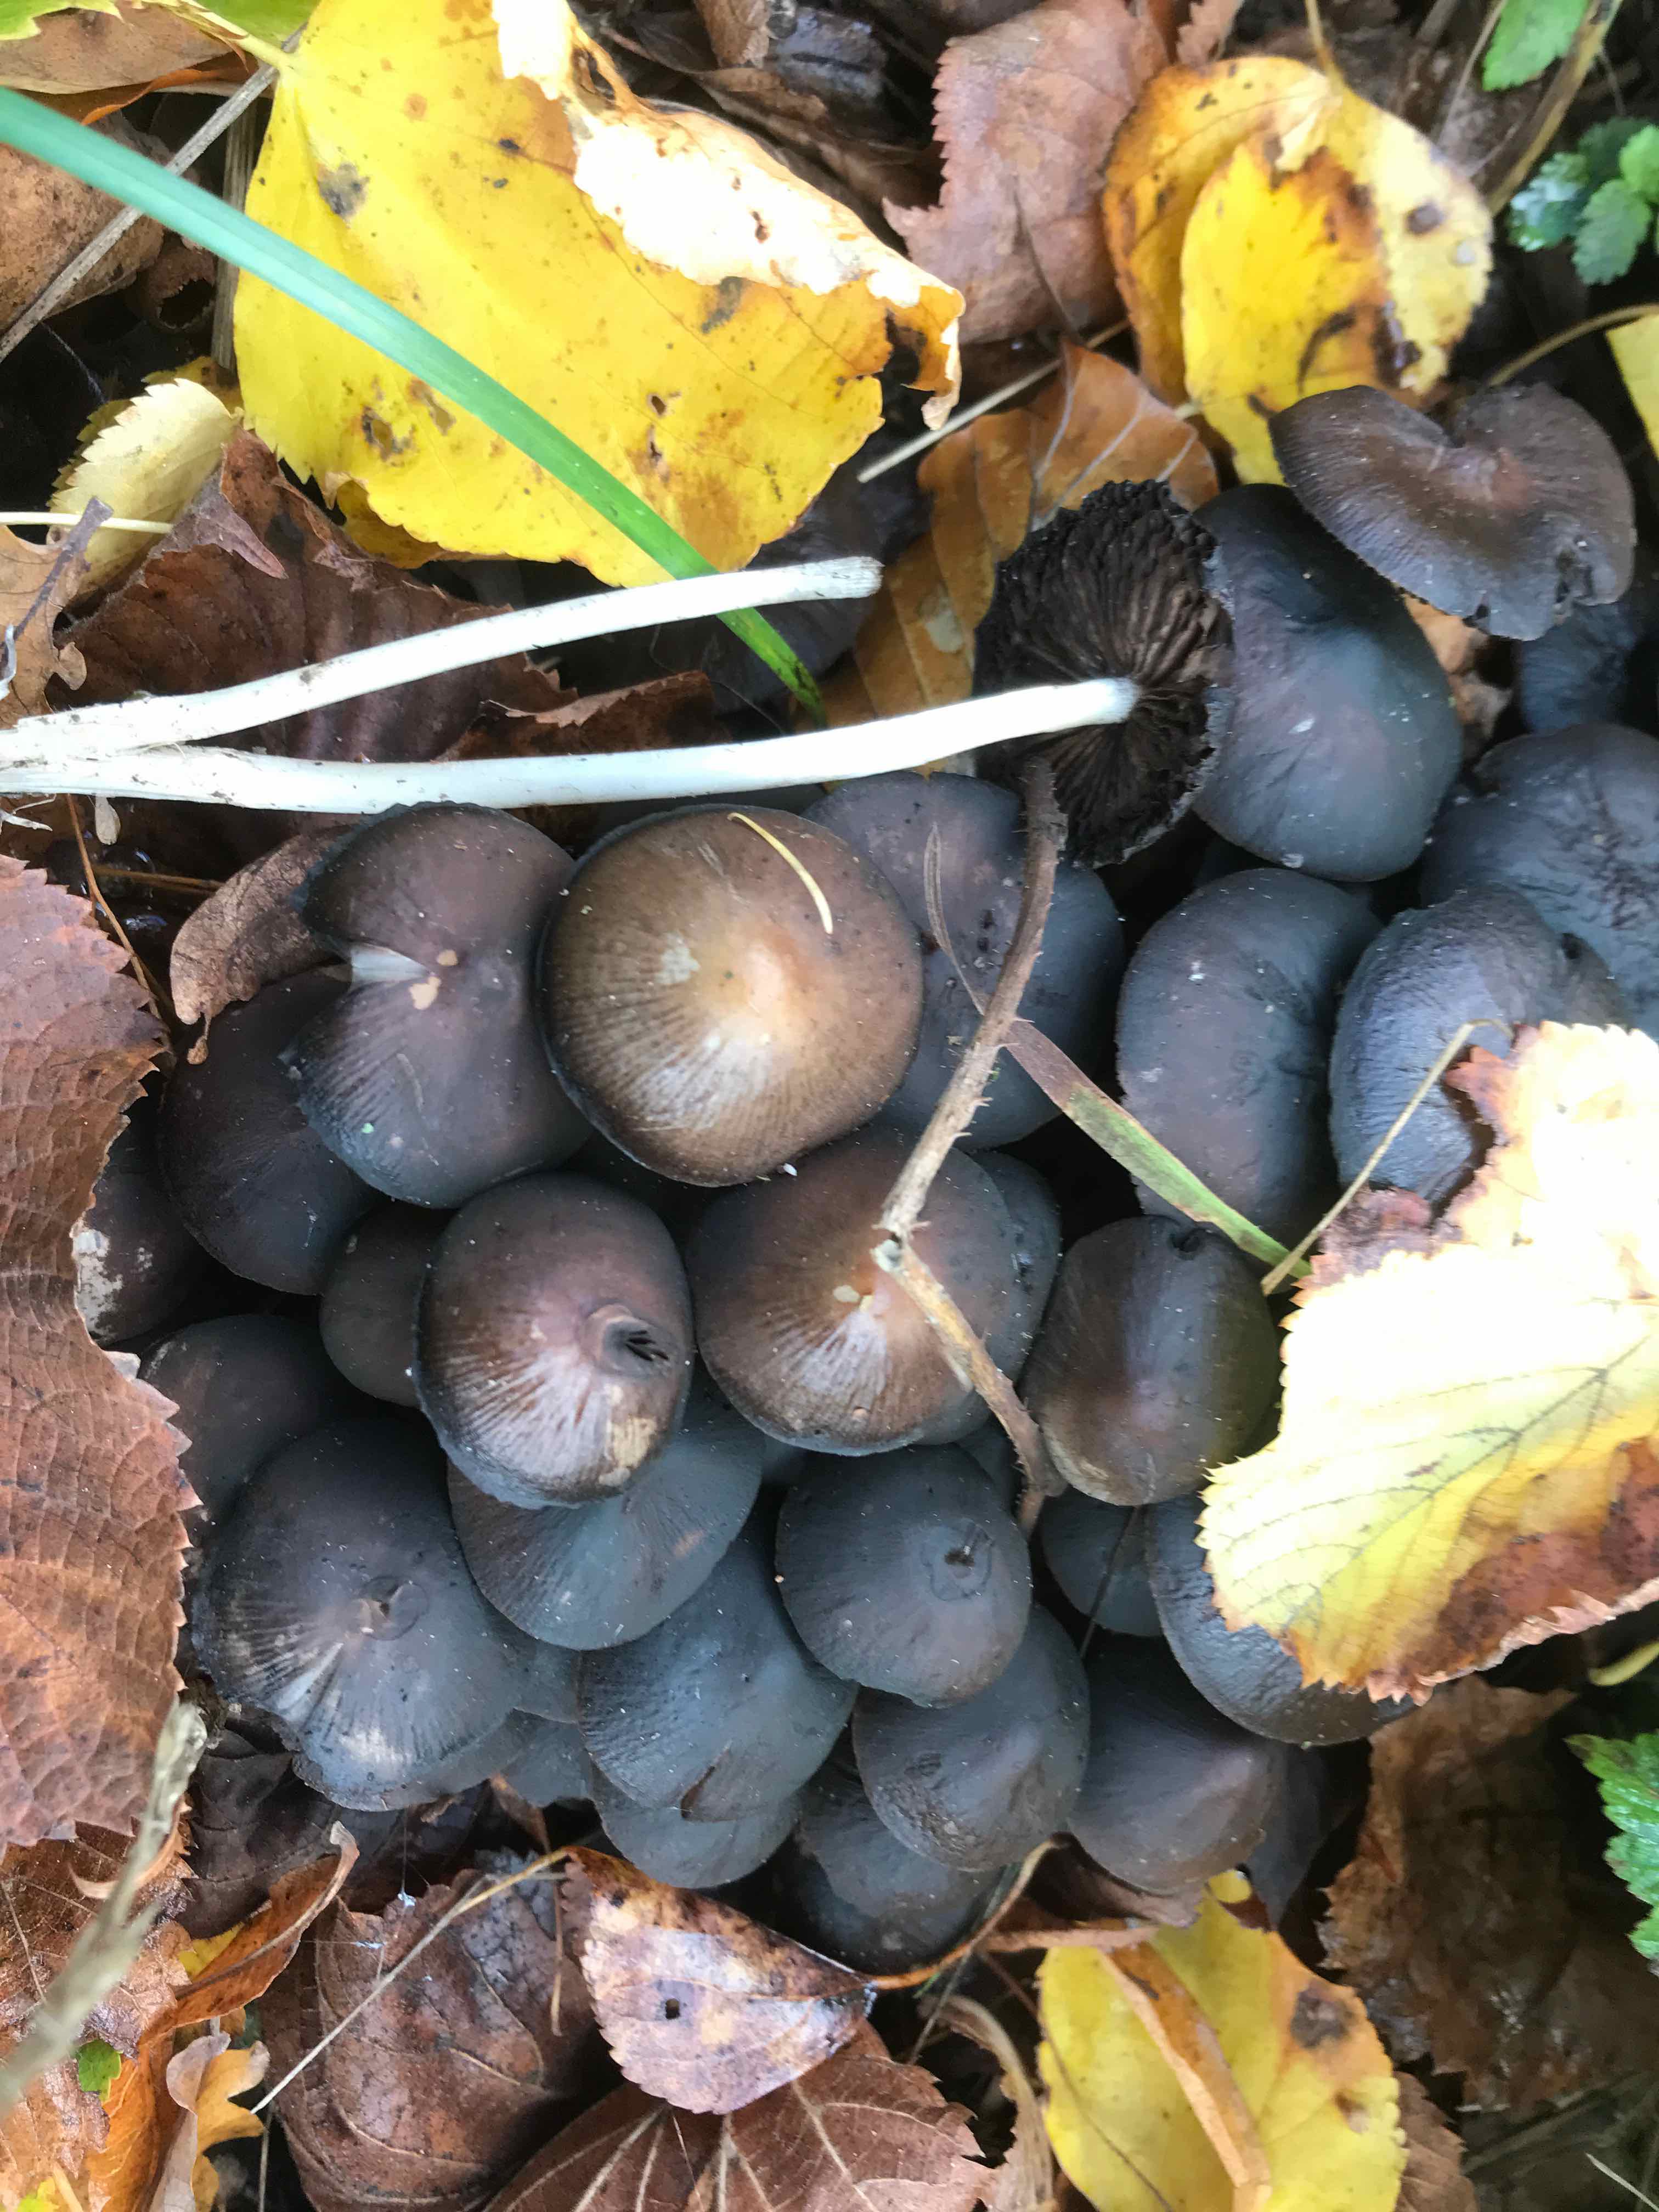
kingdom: Fungi
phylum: Basidiomycota
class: Agaricomycetes
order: Agaricales
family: Psathyrellaceae
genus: Psathyrella
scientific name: Psathyrella piluliformis
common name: lysstokket mørkhat
